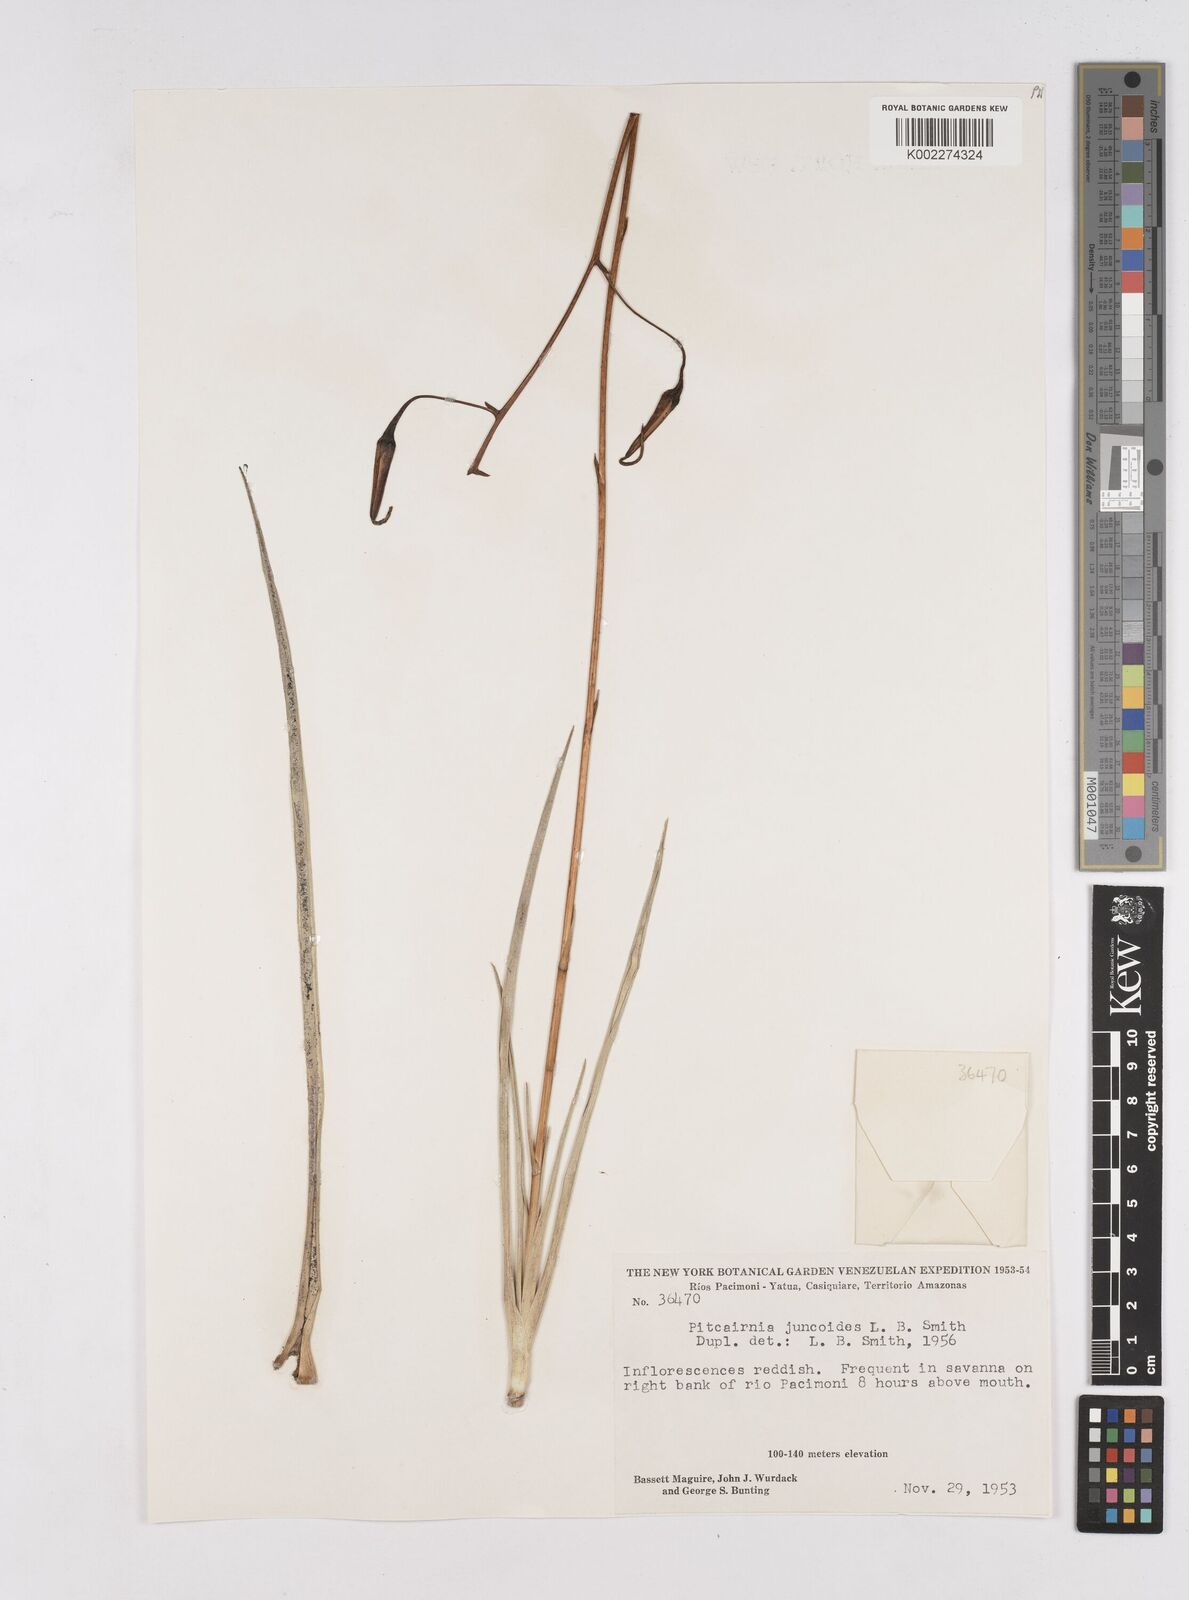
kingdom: Plantae
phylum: Tracheophyta
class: Liliopsida
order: Poales
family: Bromeliaceae
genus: Pitcairnia
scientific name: Pitcairnia juncoides
